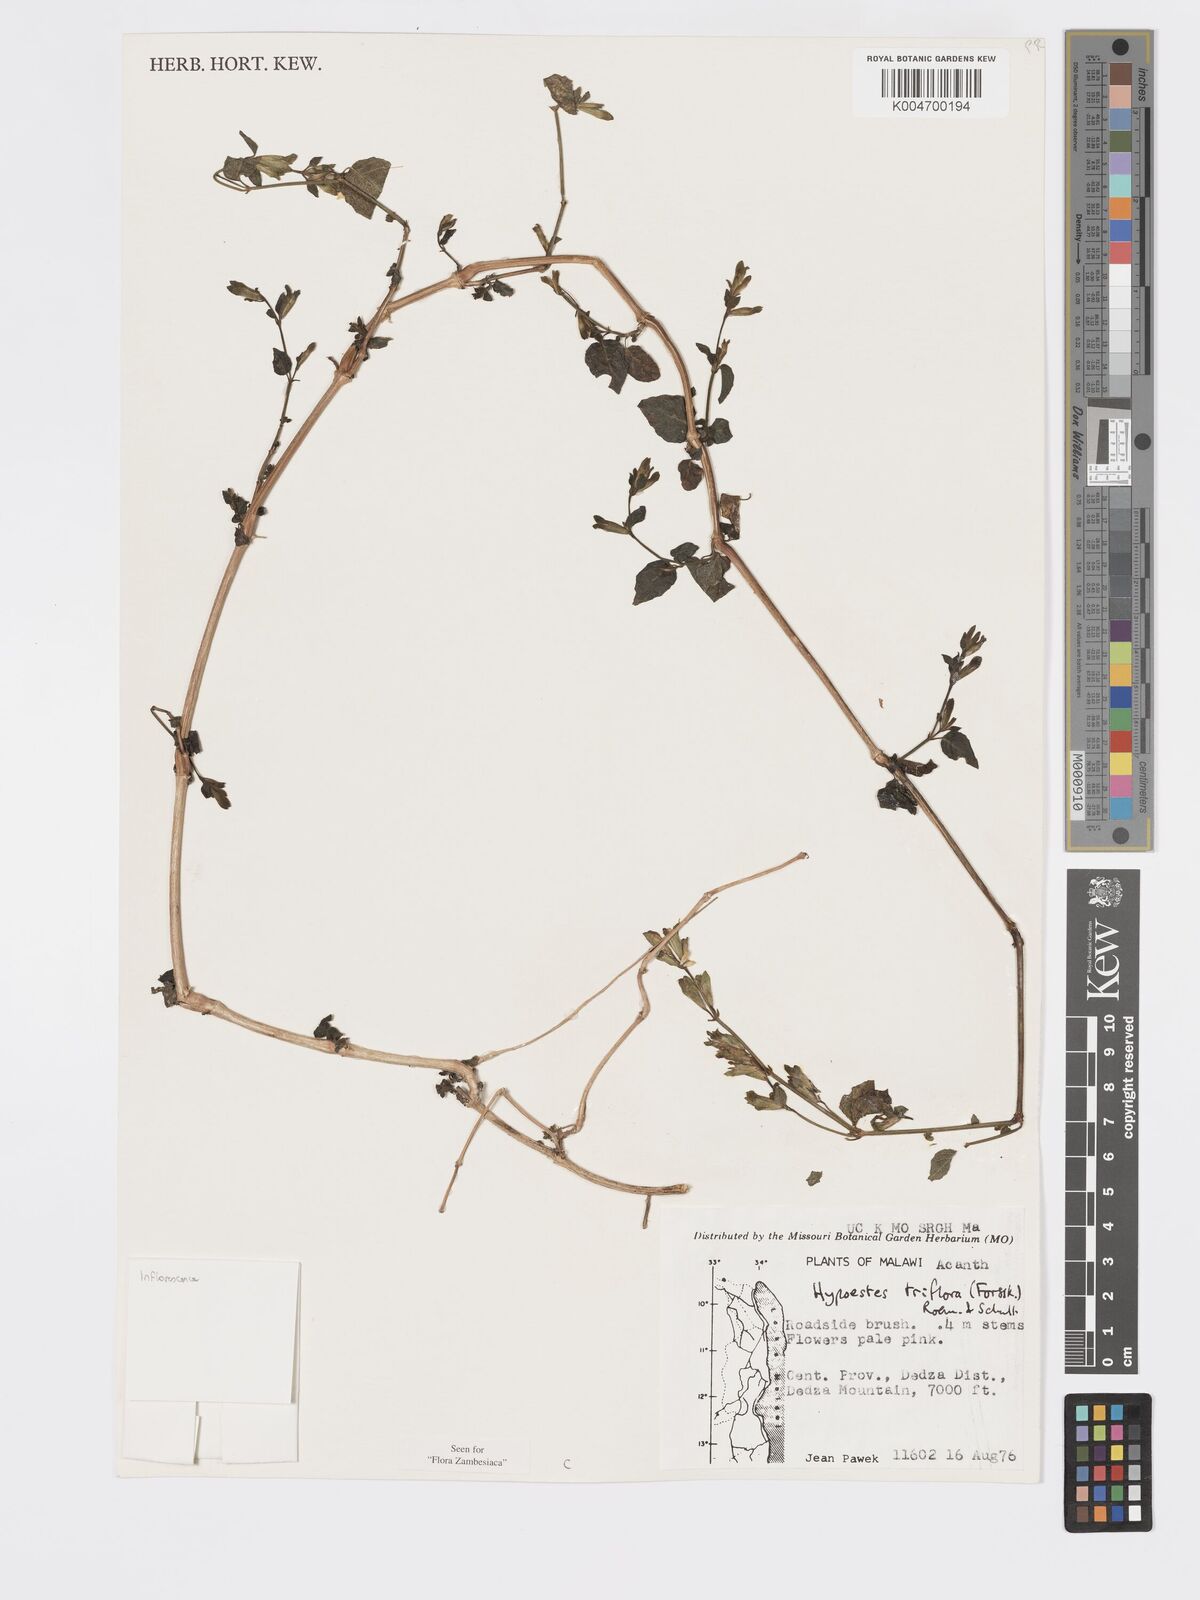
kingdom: Plantae
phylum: Tracheophyta
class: Magnoliopsida
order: Lamiales
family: Acanthaceae
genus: Hypoestes
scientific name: Hypoestes triflora
